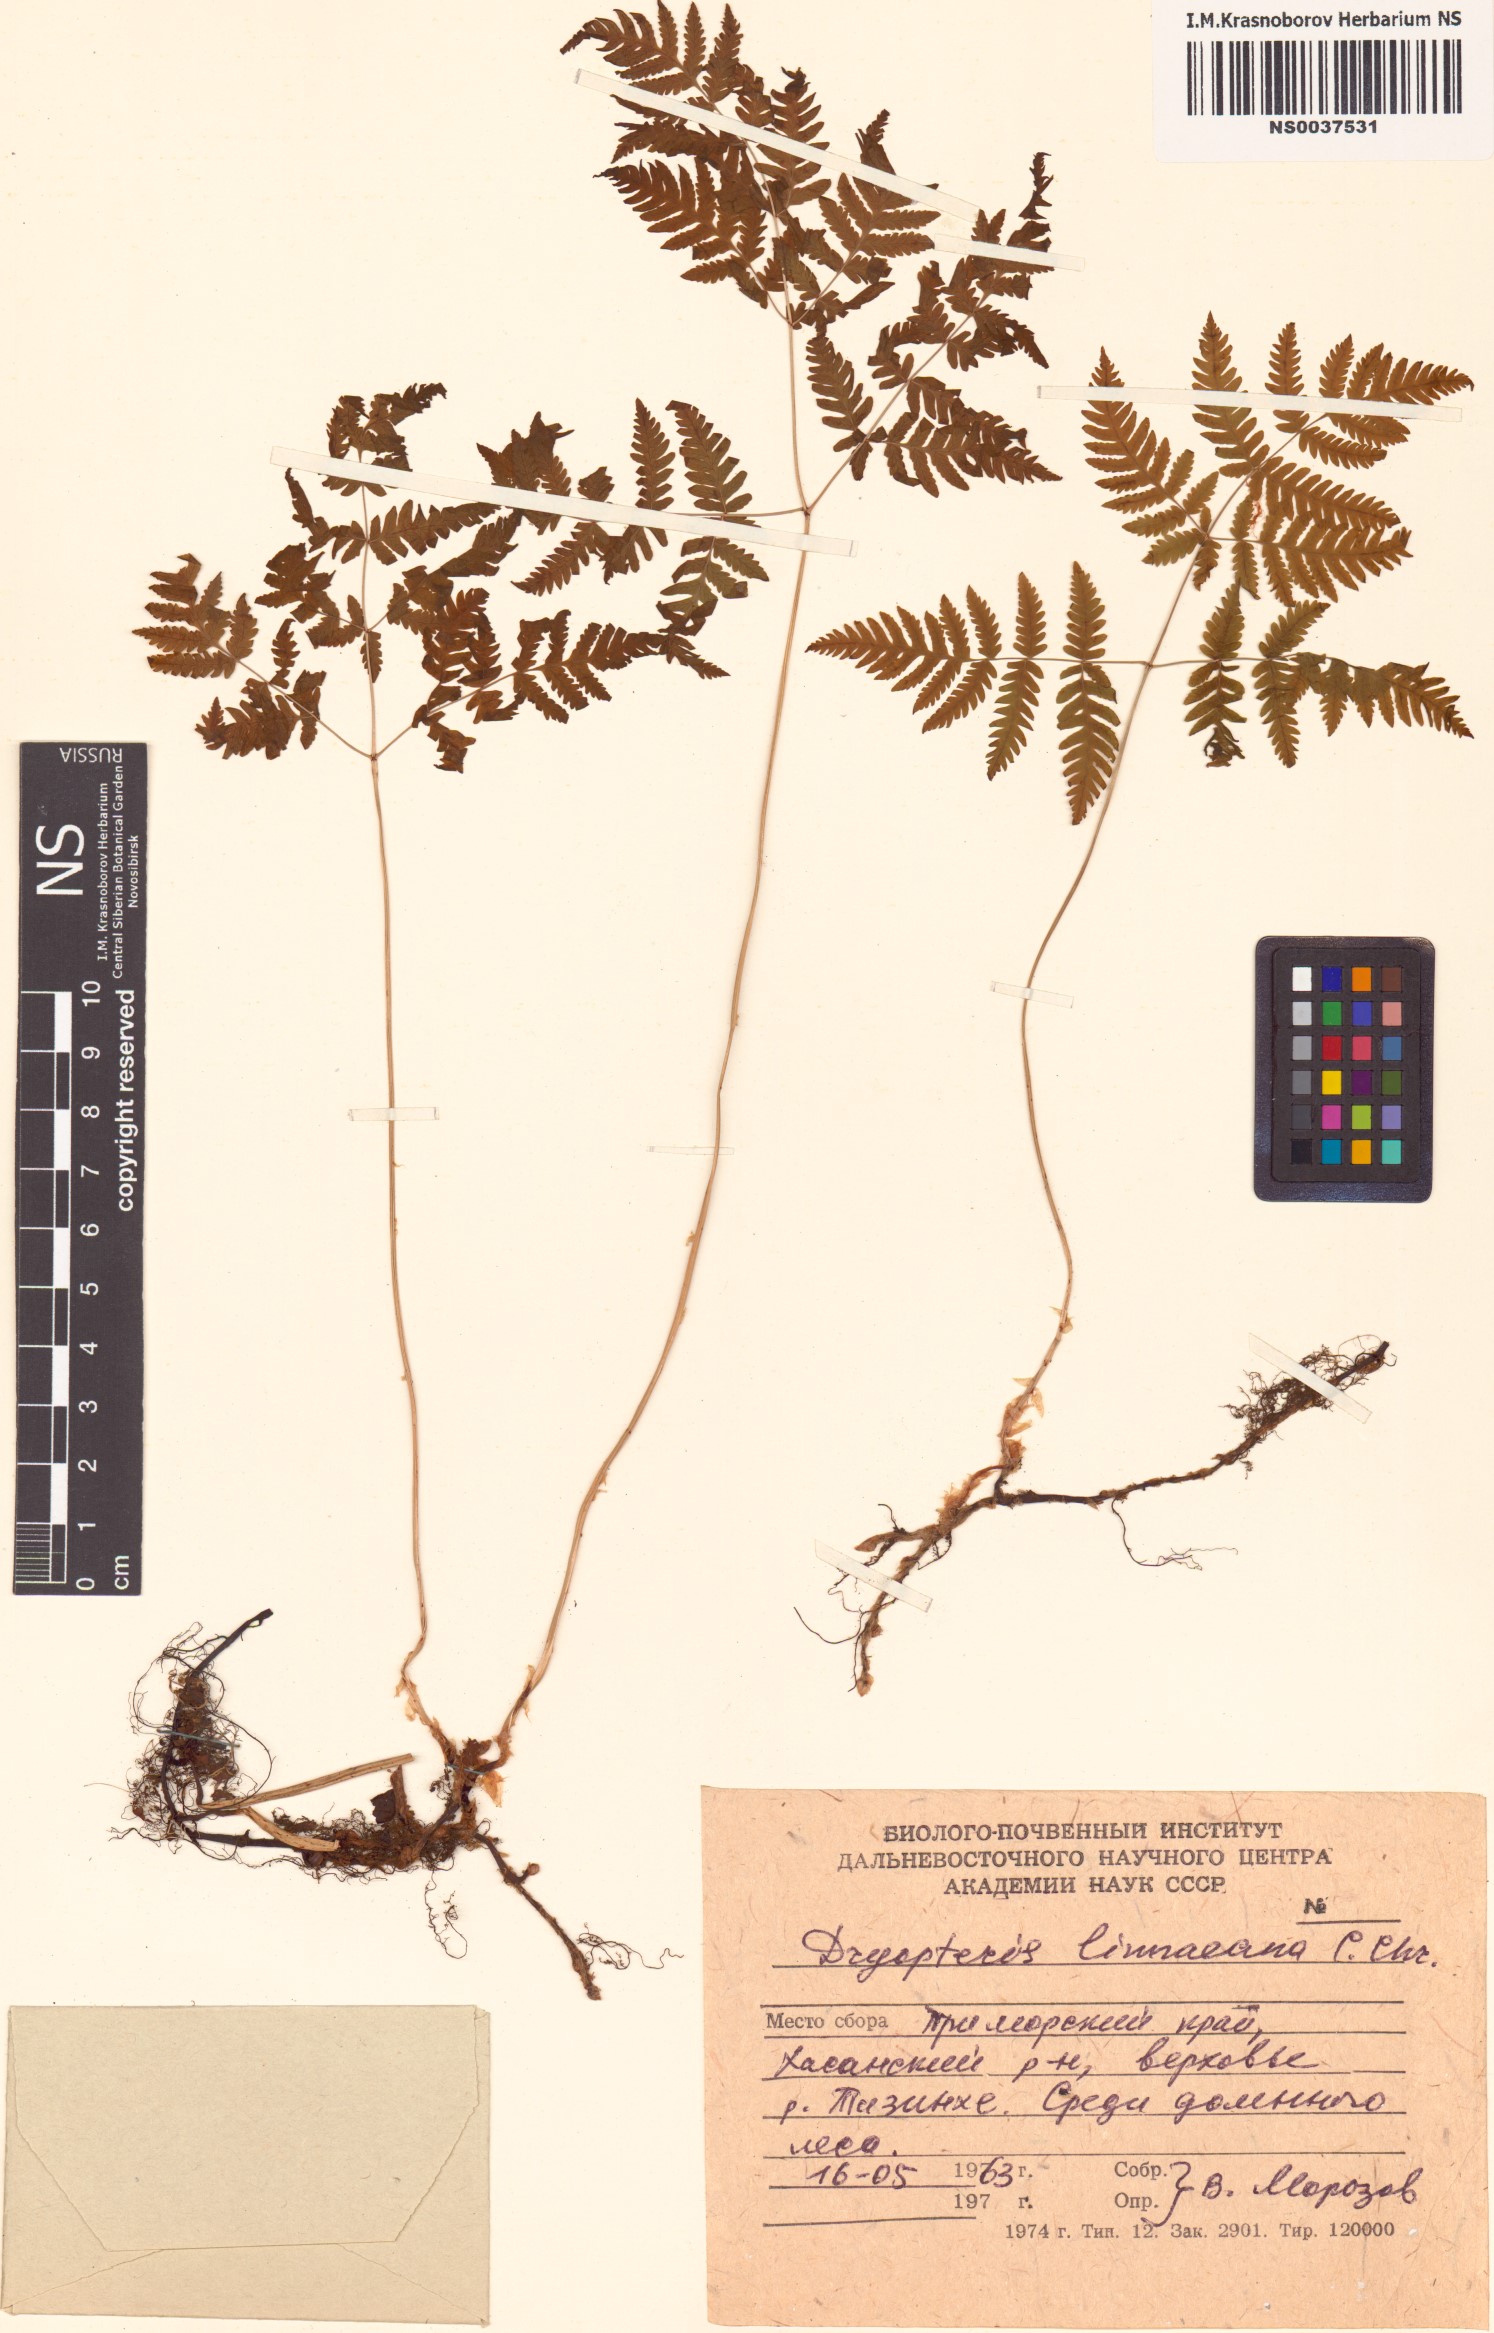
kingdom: Plantae
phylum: Tracheophyta
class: Polypodiopsida
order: Polypodiales
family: Cystopteridaceae
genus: Gymnocarpium
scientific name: Gymnocarpium dryopteris
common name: Oak fern
